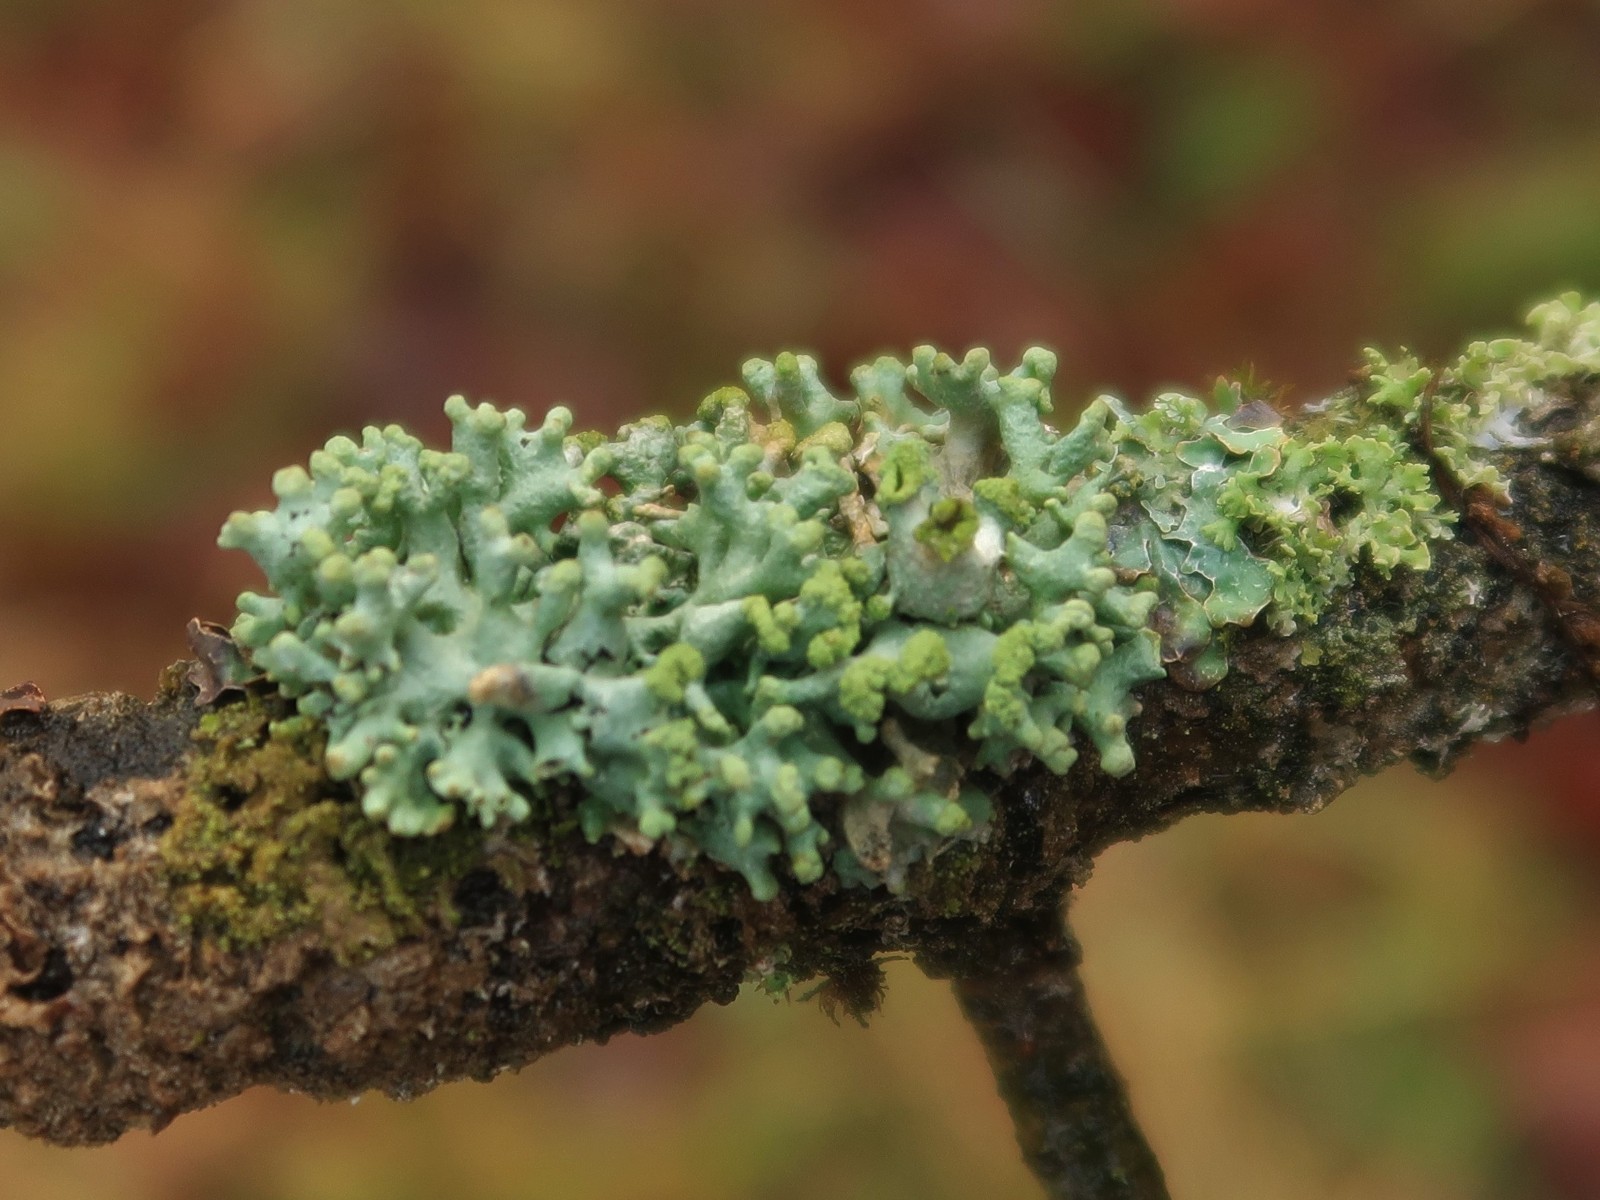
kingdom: Fungi
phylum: Ascomycota
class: Lecanoromycetes
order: Lecanorales
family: Parmeliaceae
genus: Hypogymnia
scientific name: Hypogymnia tubulosa
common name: finger-kvistlav
